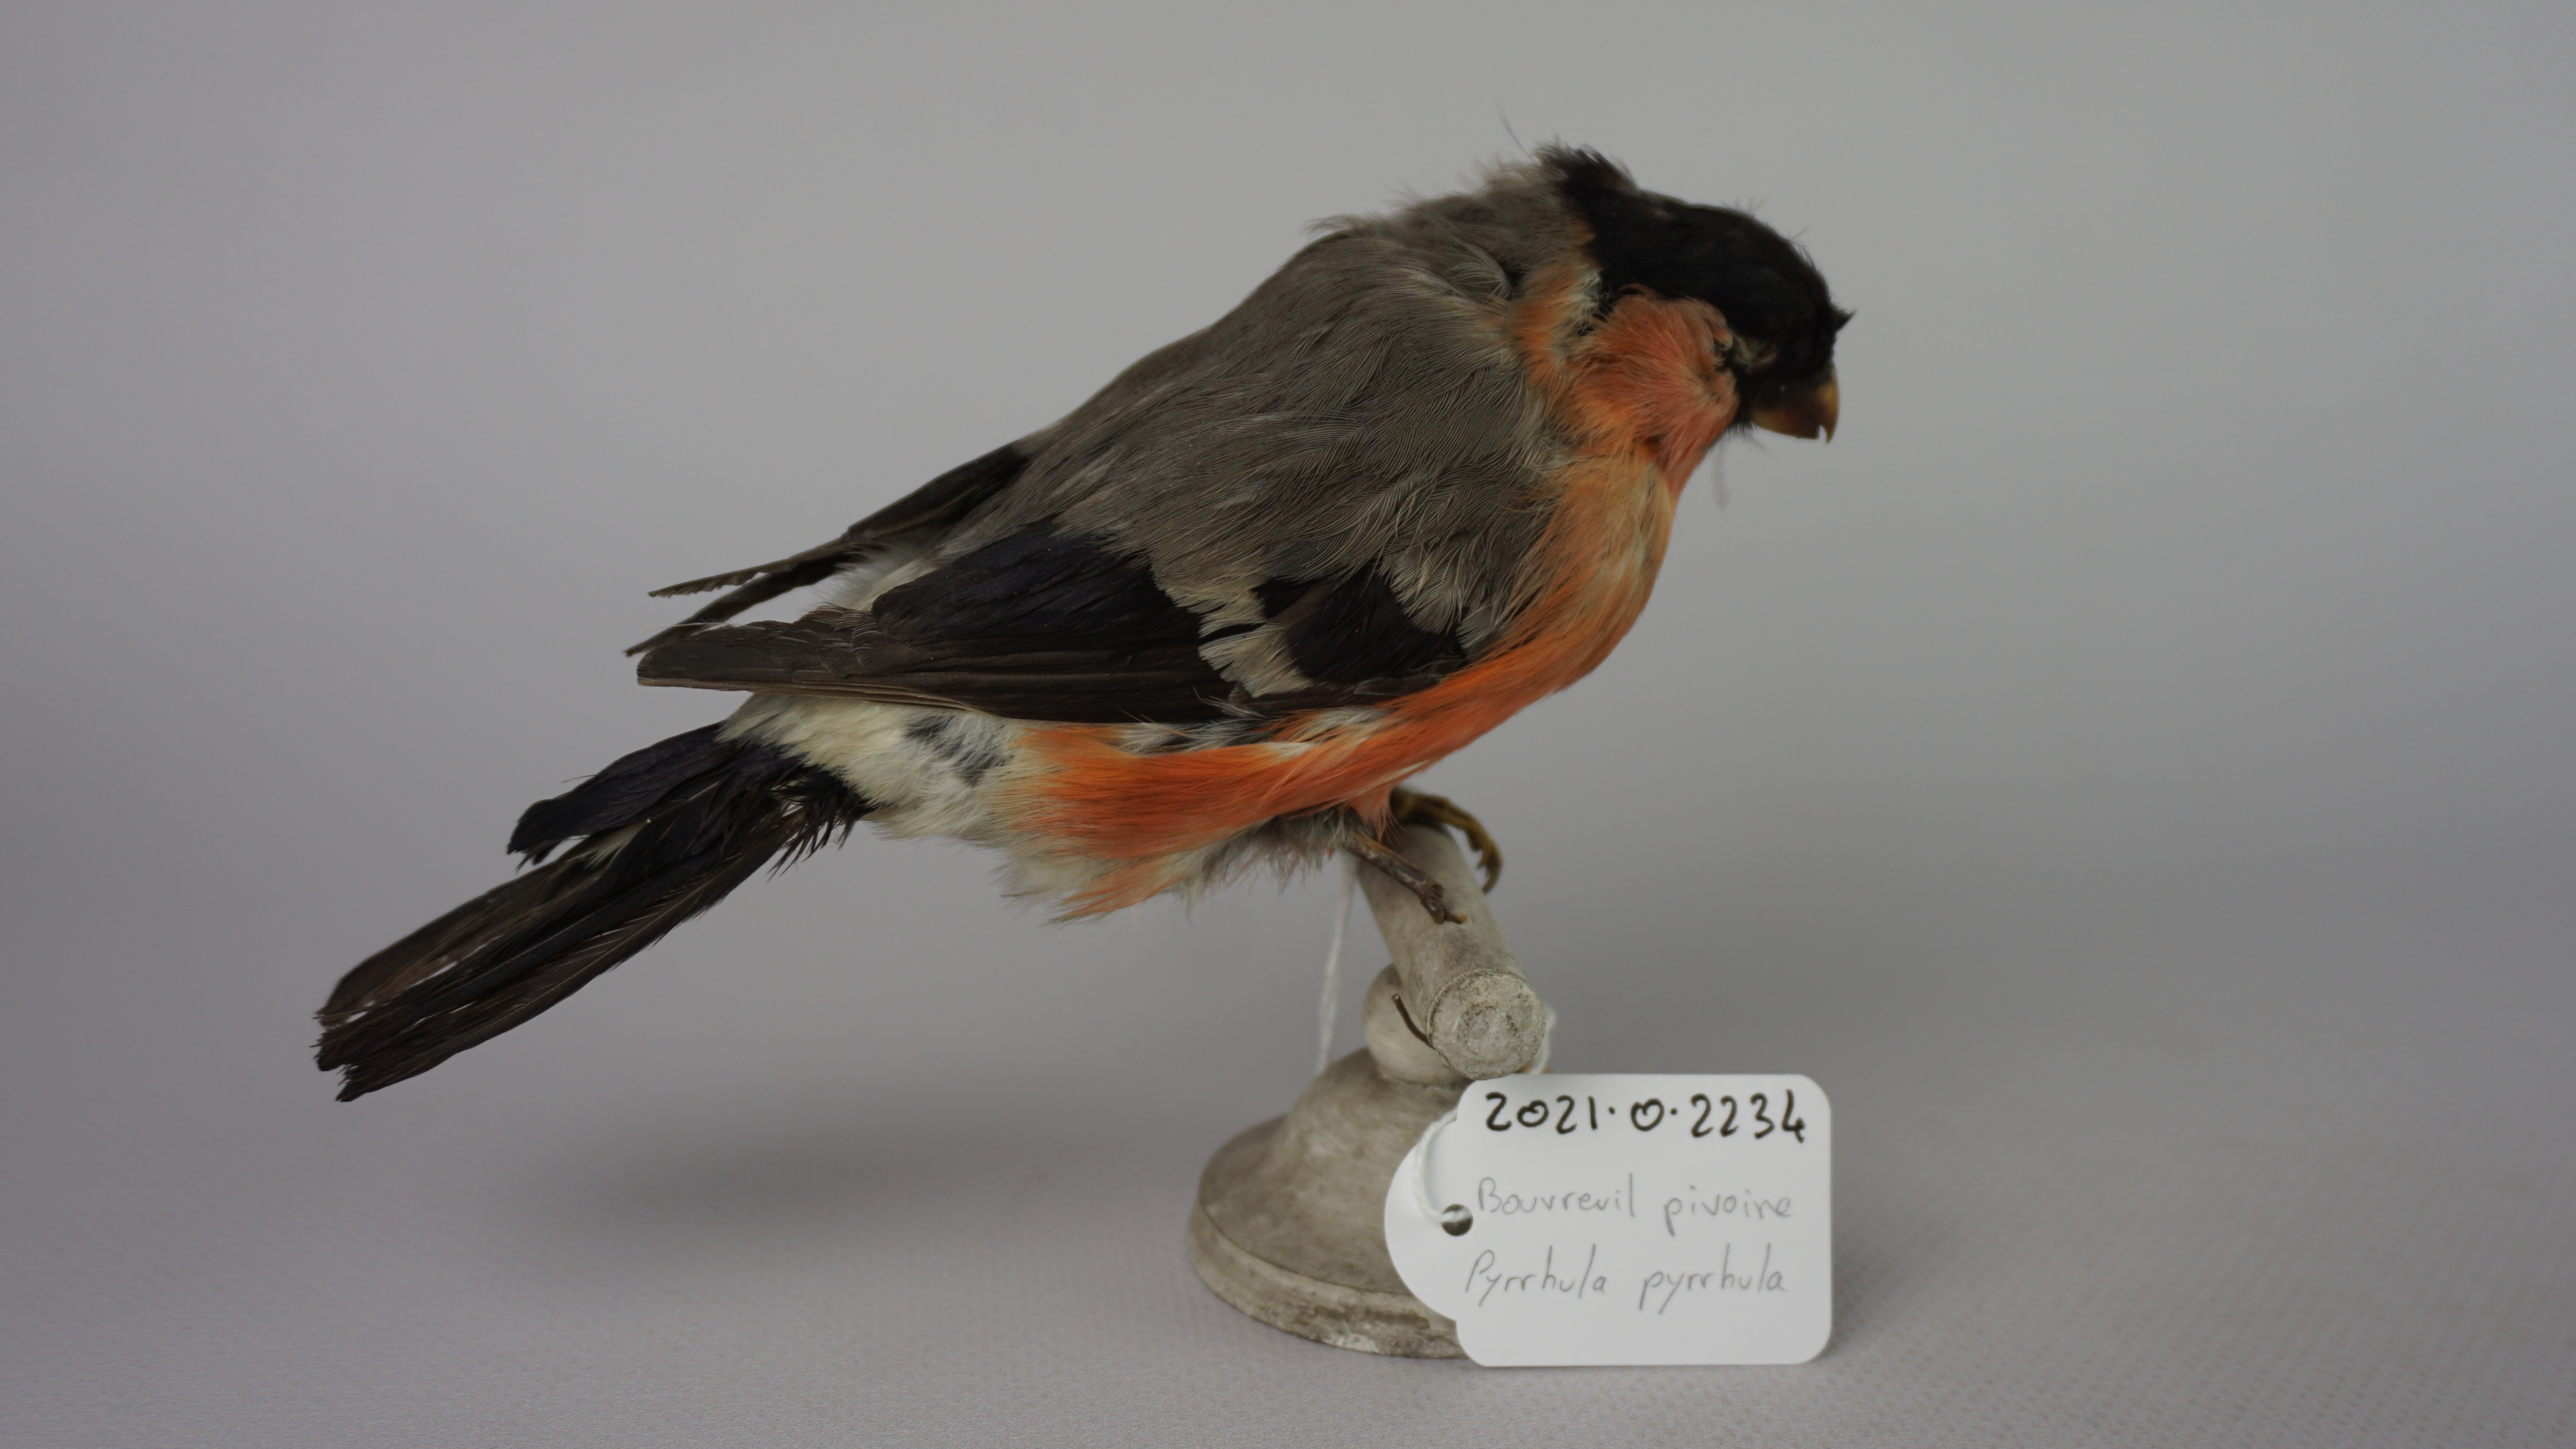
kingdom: Animalia
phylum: Chordata
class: Aves
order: Passeriformes
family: Fringillidae
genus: Pyrrhula
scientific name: Pyrrhula pyrrhula
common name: Eurasian bullfinch
